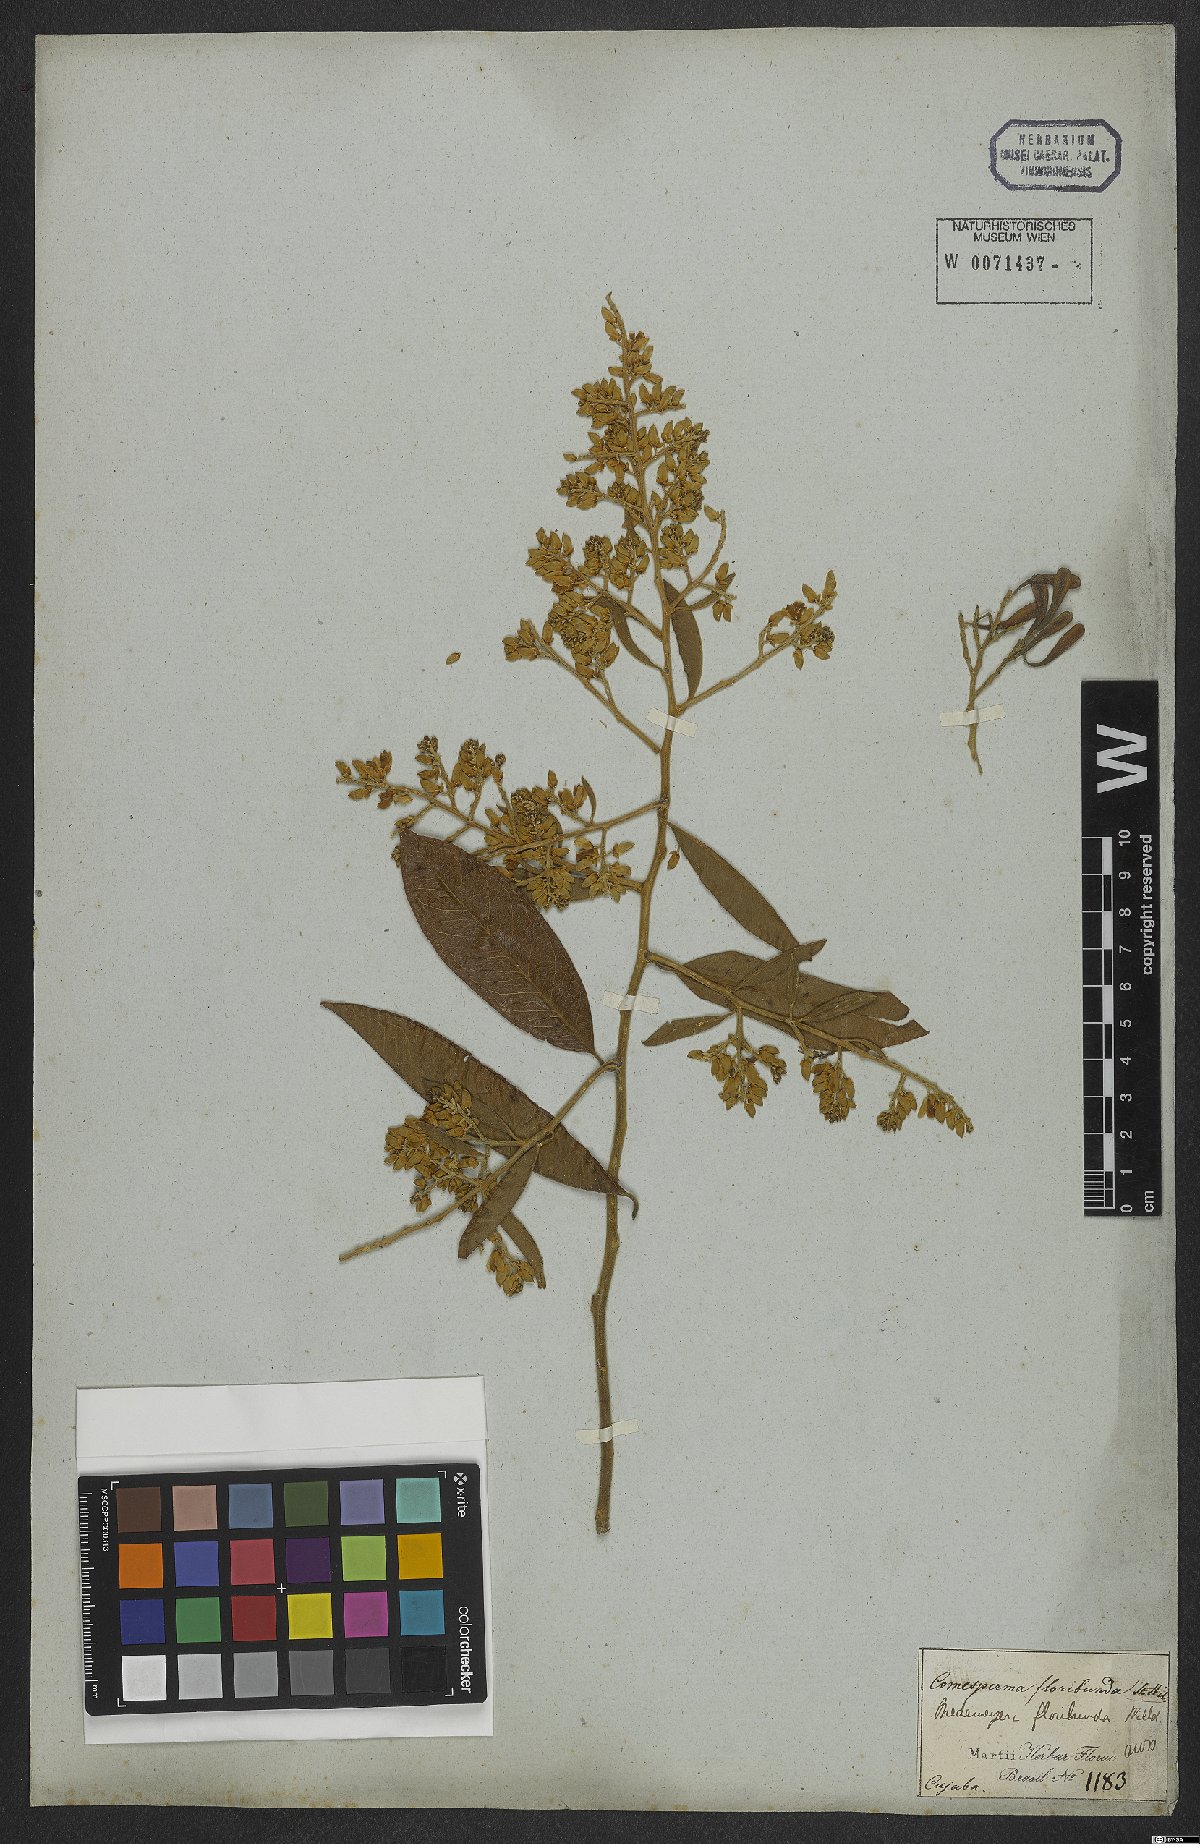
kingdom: Plantae
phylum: Tracheophyta
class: Magnoliopsida
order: Fabales
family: Polygalaceae
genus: Bredemeyera
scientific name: Bredemeyera floribunda
